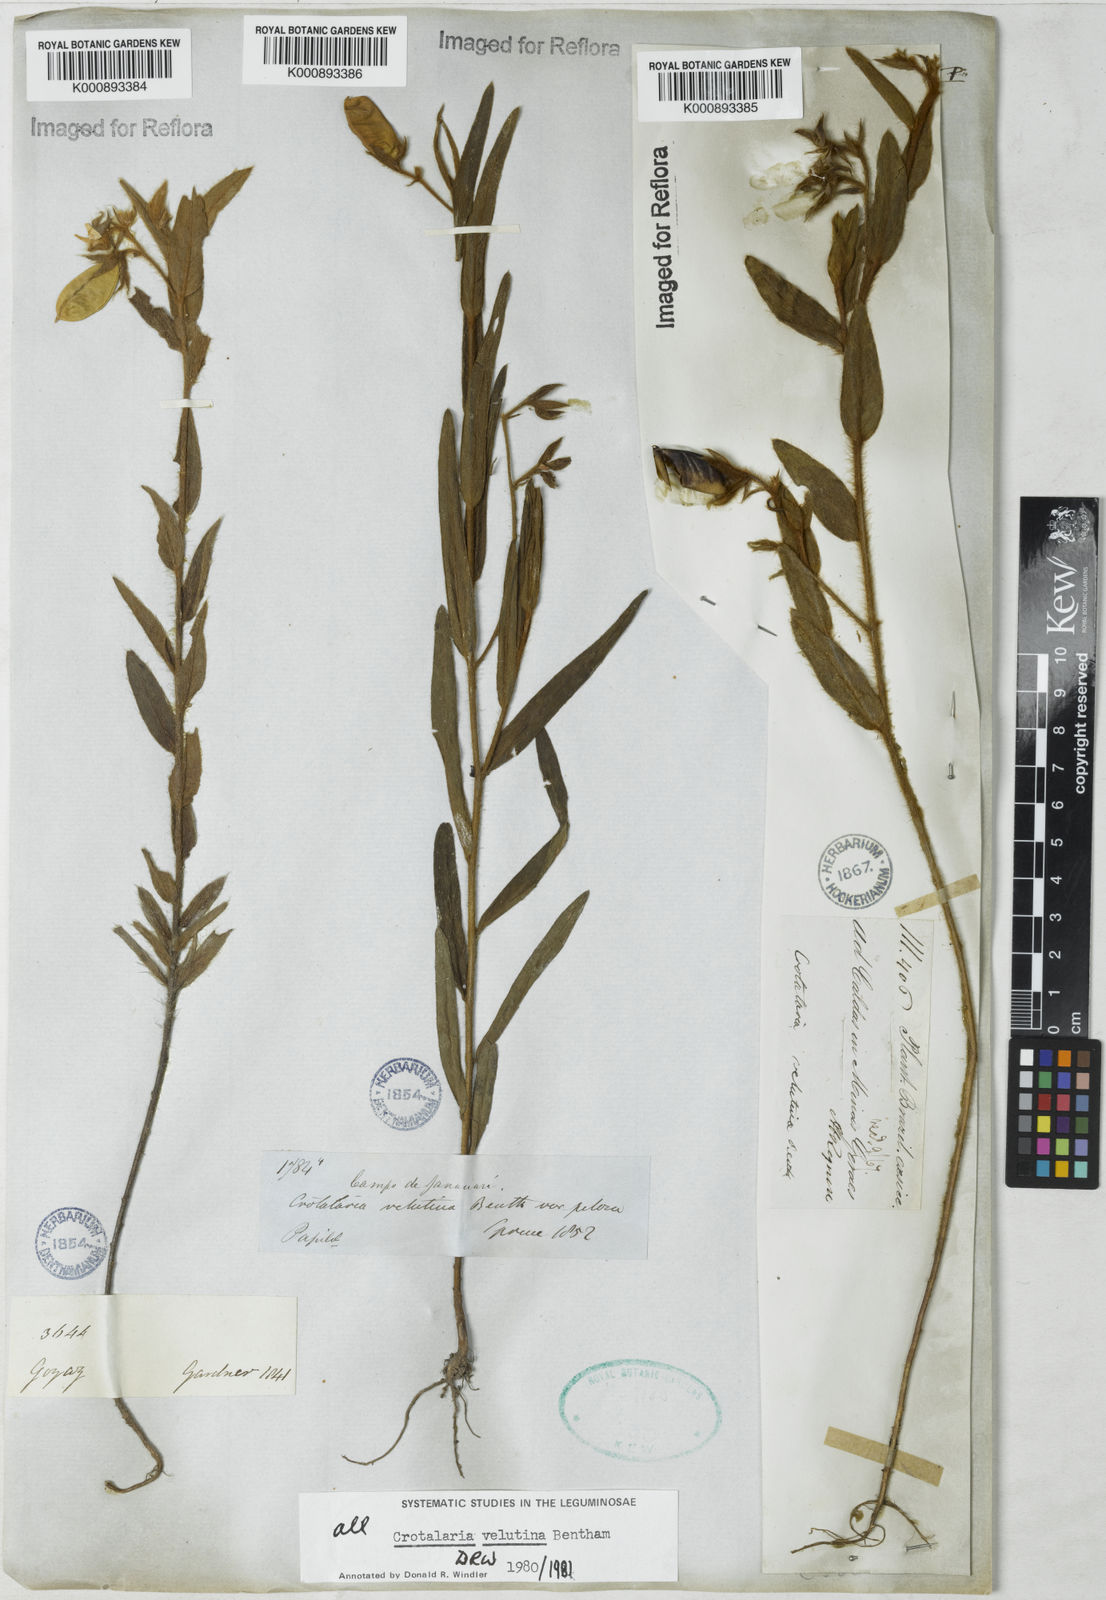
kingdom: Plantae
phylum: Tracheophyta
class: Magnoliopsida
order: Fabales
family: Fabaceae
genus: Crotalaria
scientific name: Crotalaria balansae
